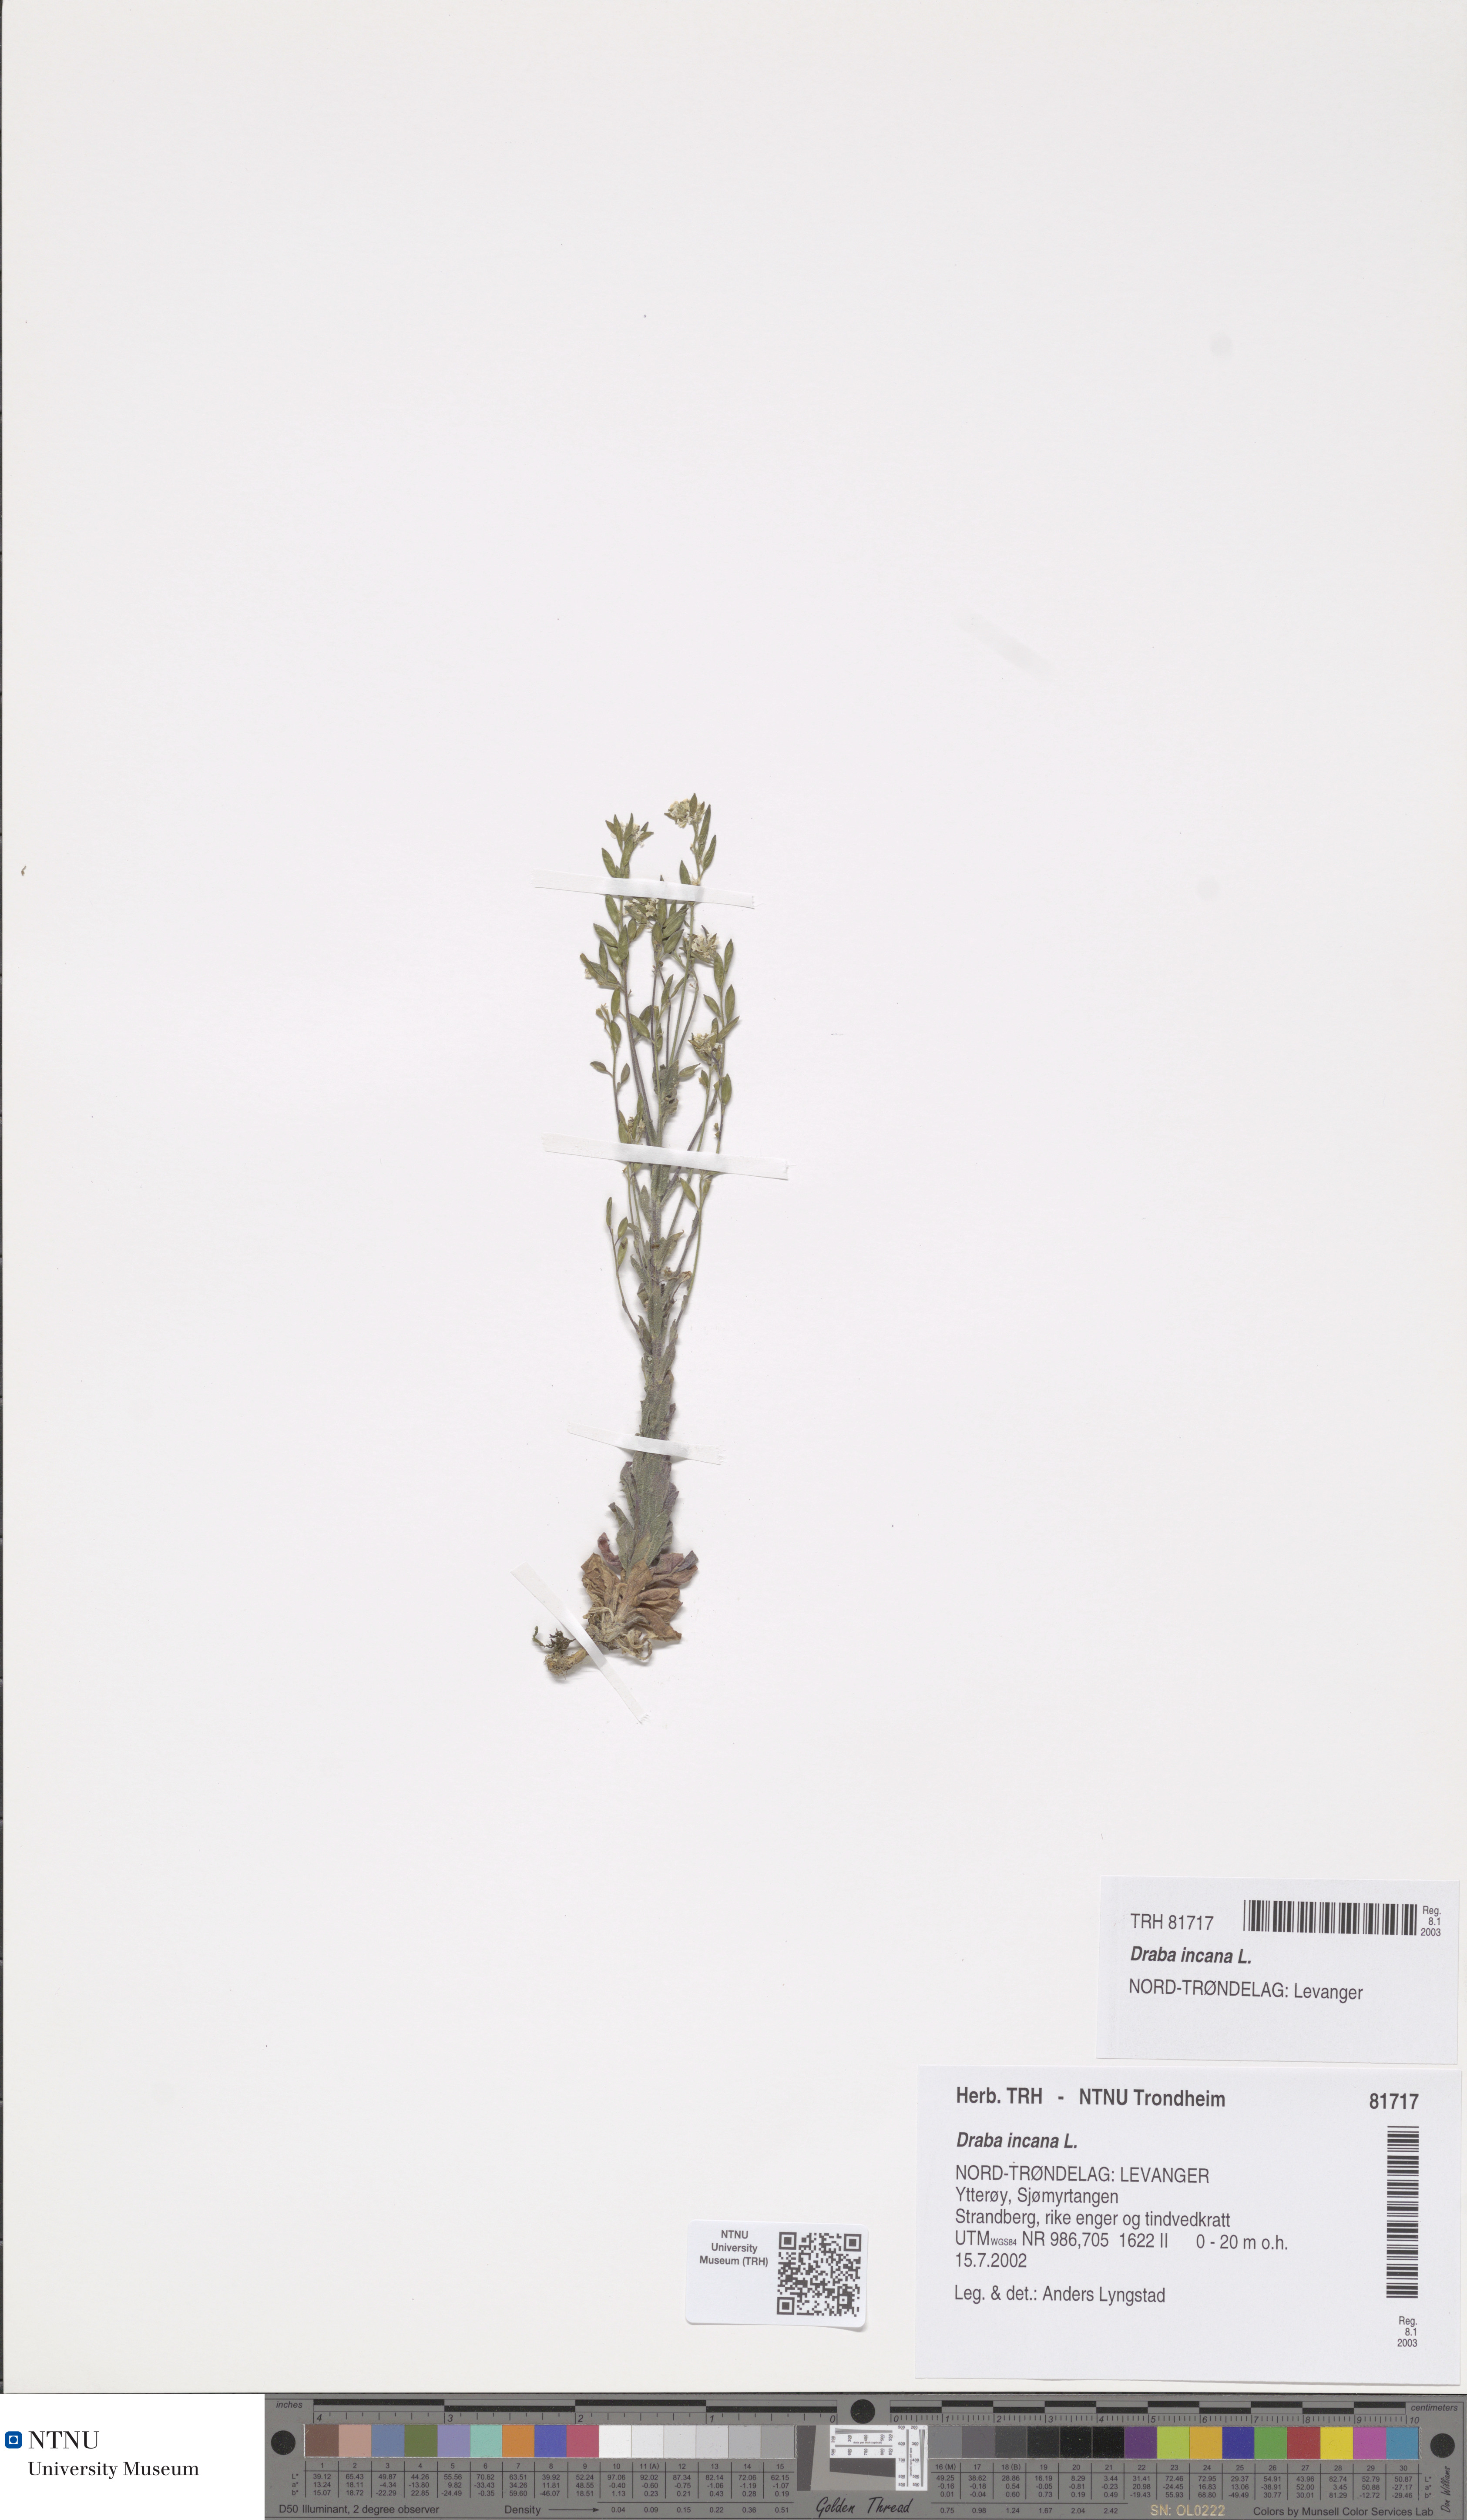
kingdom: Plantae
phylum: Tracheophyta
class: Magnoliopsida
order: Brassicales
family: Brassicaceae
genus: Draba
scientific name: Draba incana
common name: Hoary whitlow-grass
